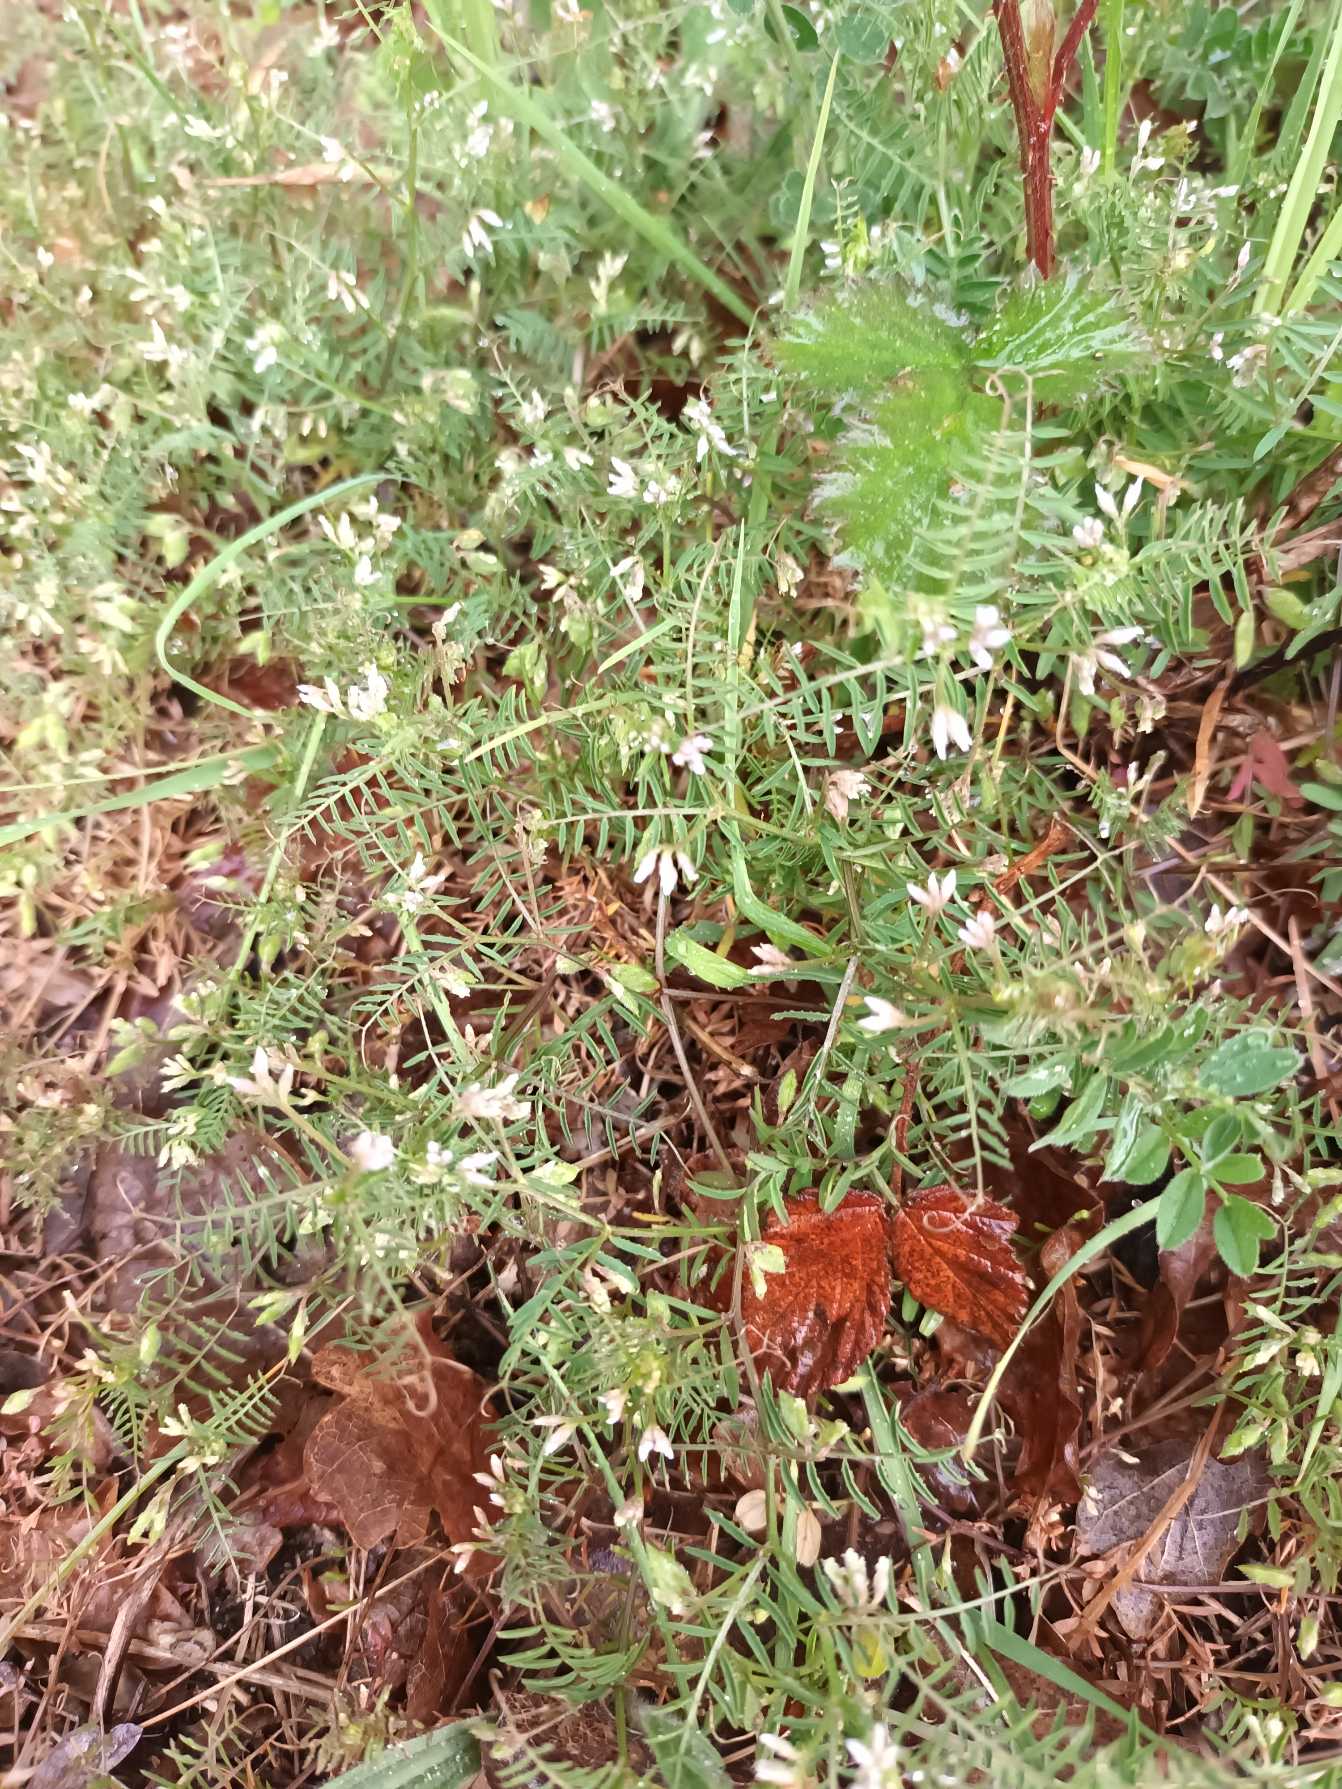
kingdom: Plantae
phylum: Tracheophyta
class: Magnoliopsida
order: Fabales
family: Fabaceae
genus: Vicia
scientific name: Vicia hirsuta
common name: Tofrøet vikke
